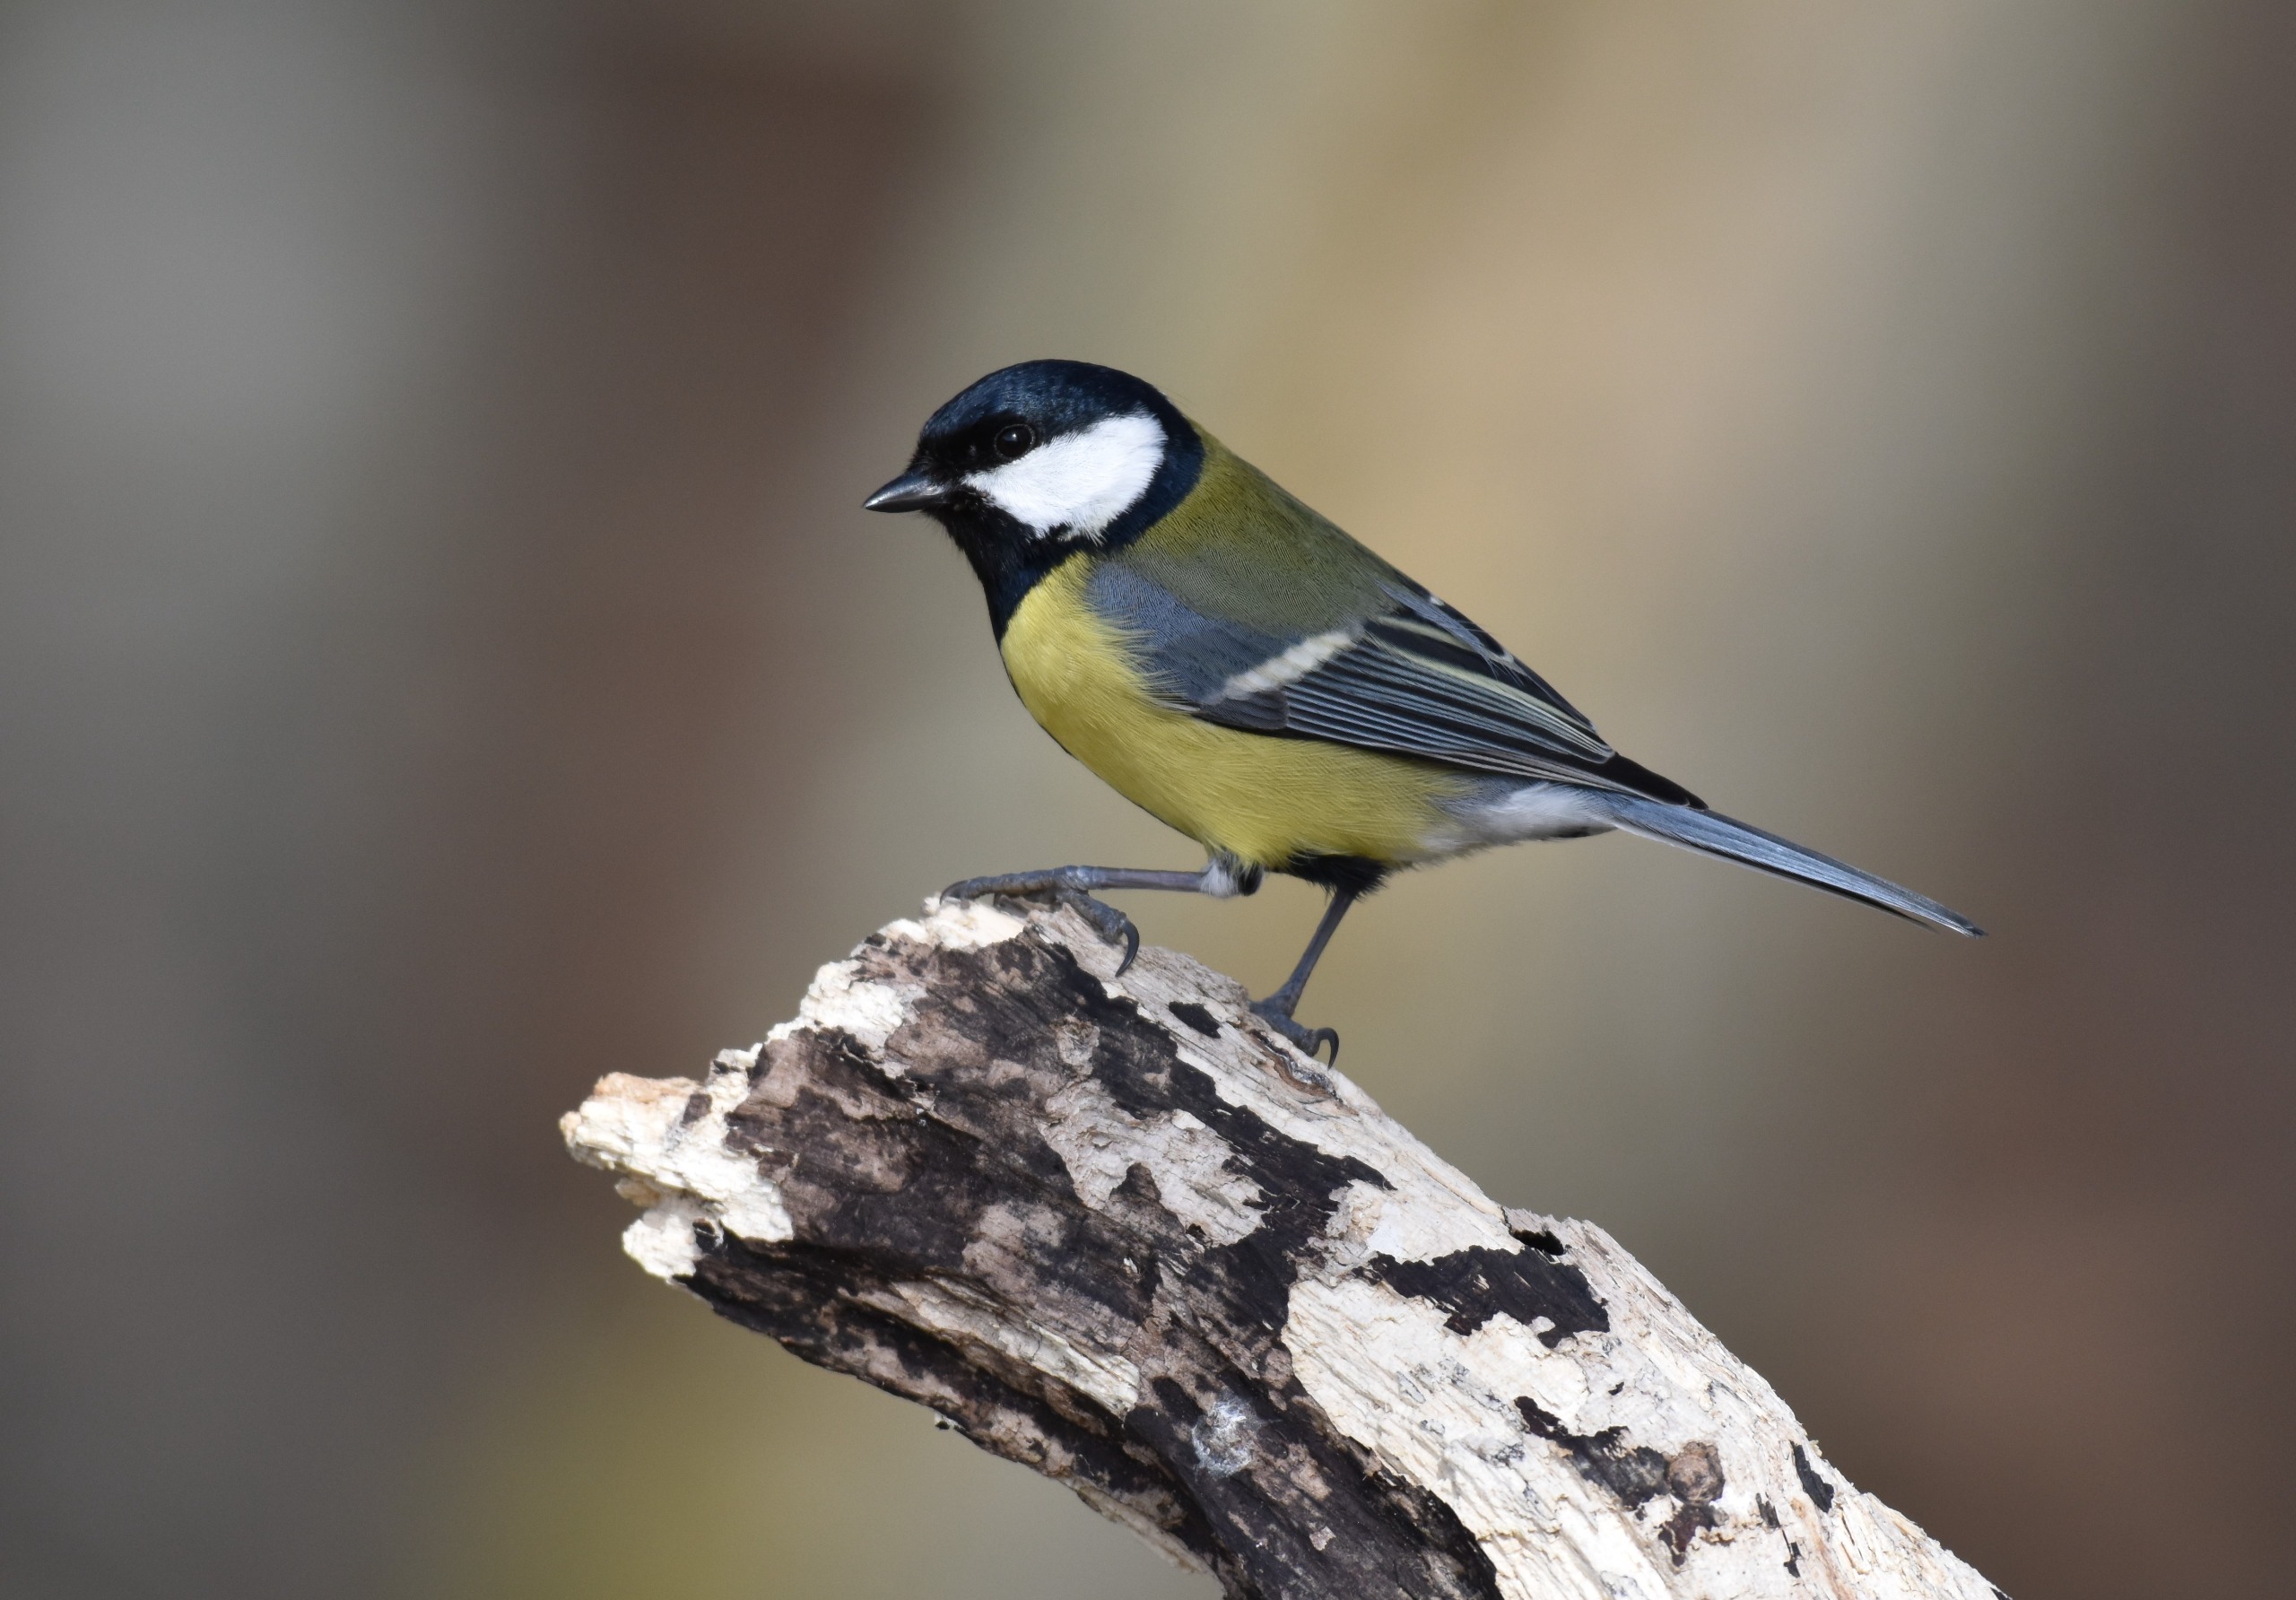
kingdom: Animalia
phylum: Chordata
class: Aves
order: Passeriformes
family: Paridae
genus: Parus
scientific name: Parus major
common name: Musvit
